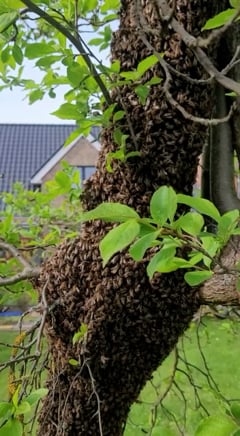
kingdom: Animalia
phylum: Arthropoda
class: Insecta
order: Hymenoptera
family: Apidae
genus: Apis
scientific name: Apis mellifera
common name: Honey bee
